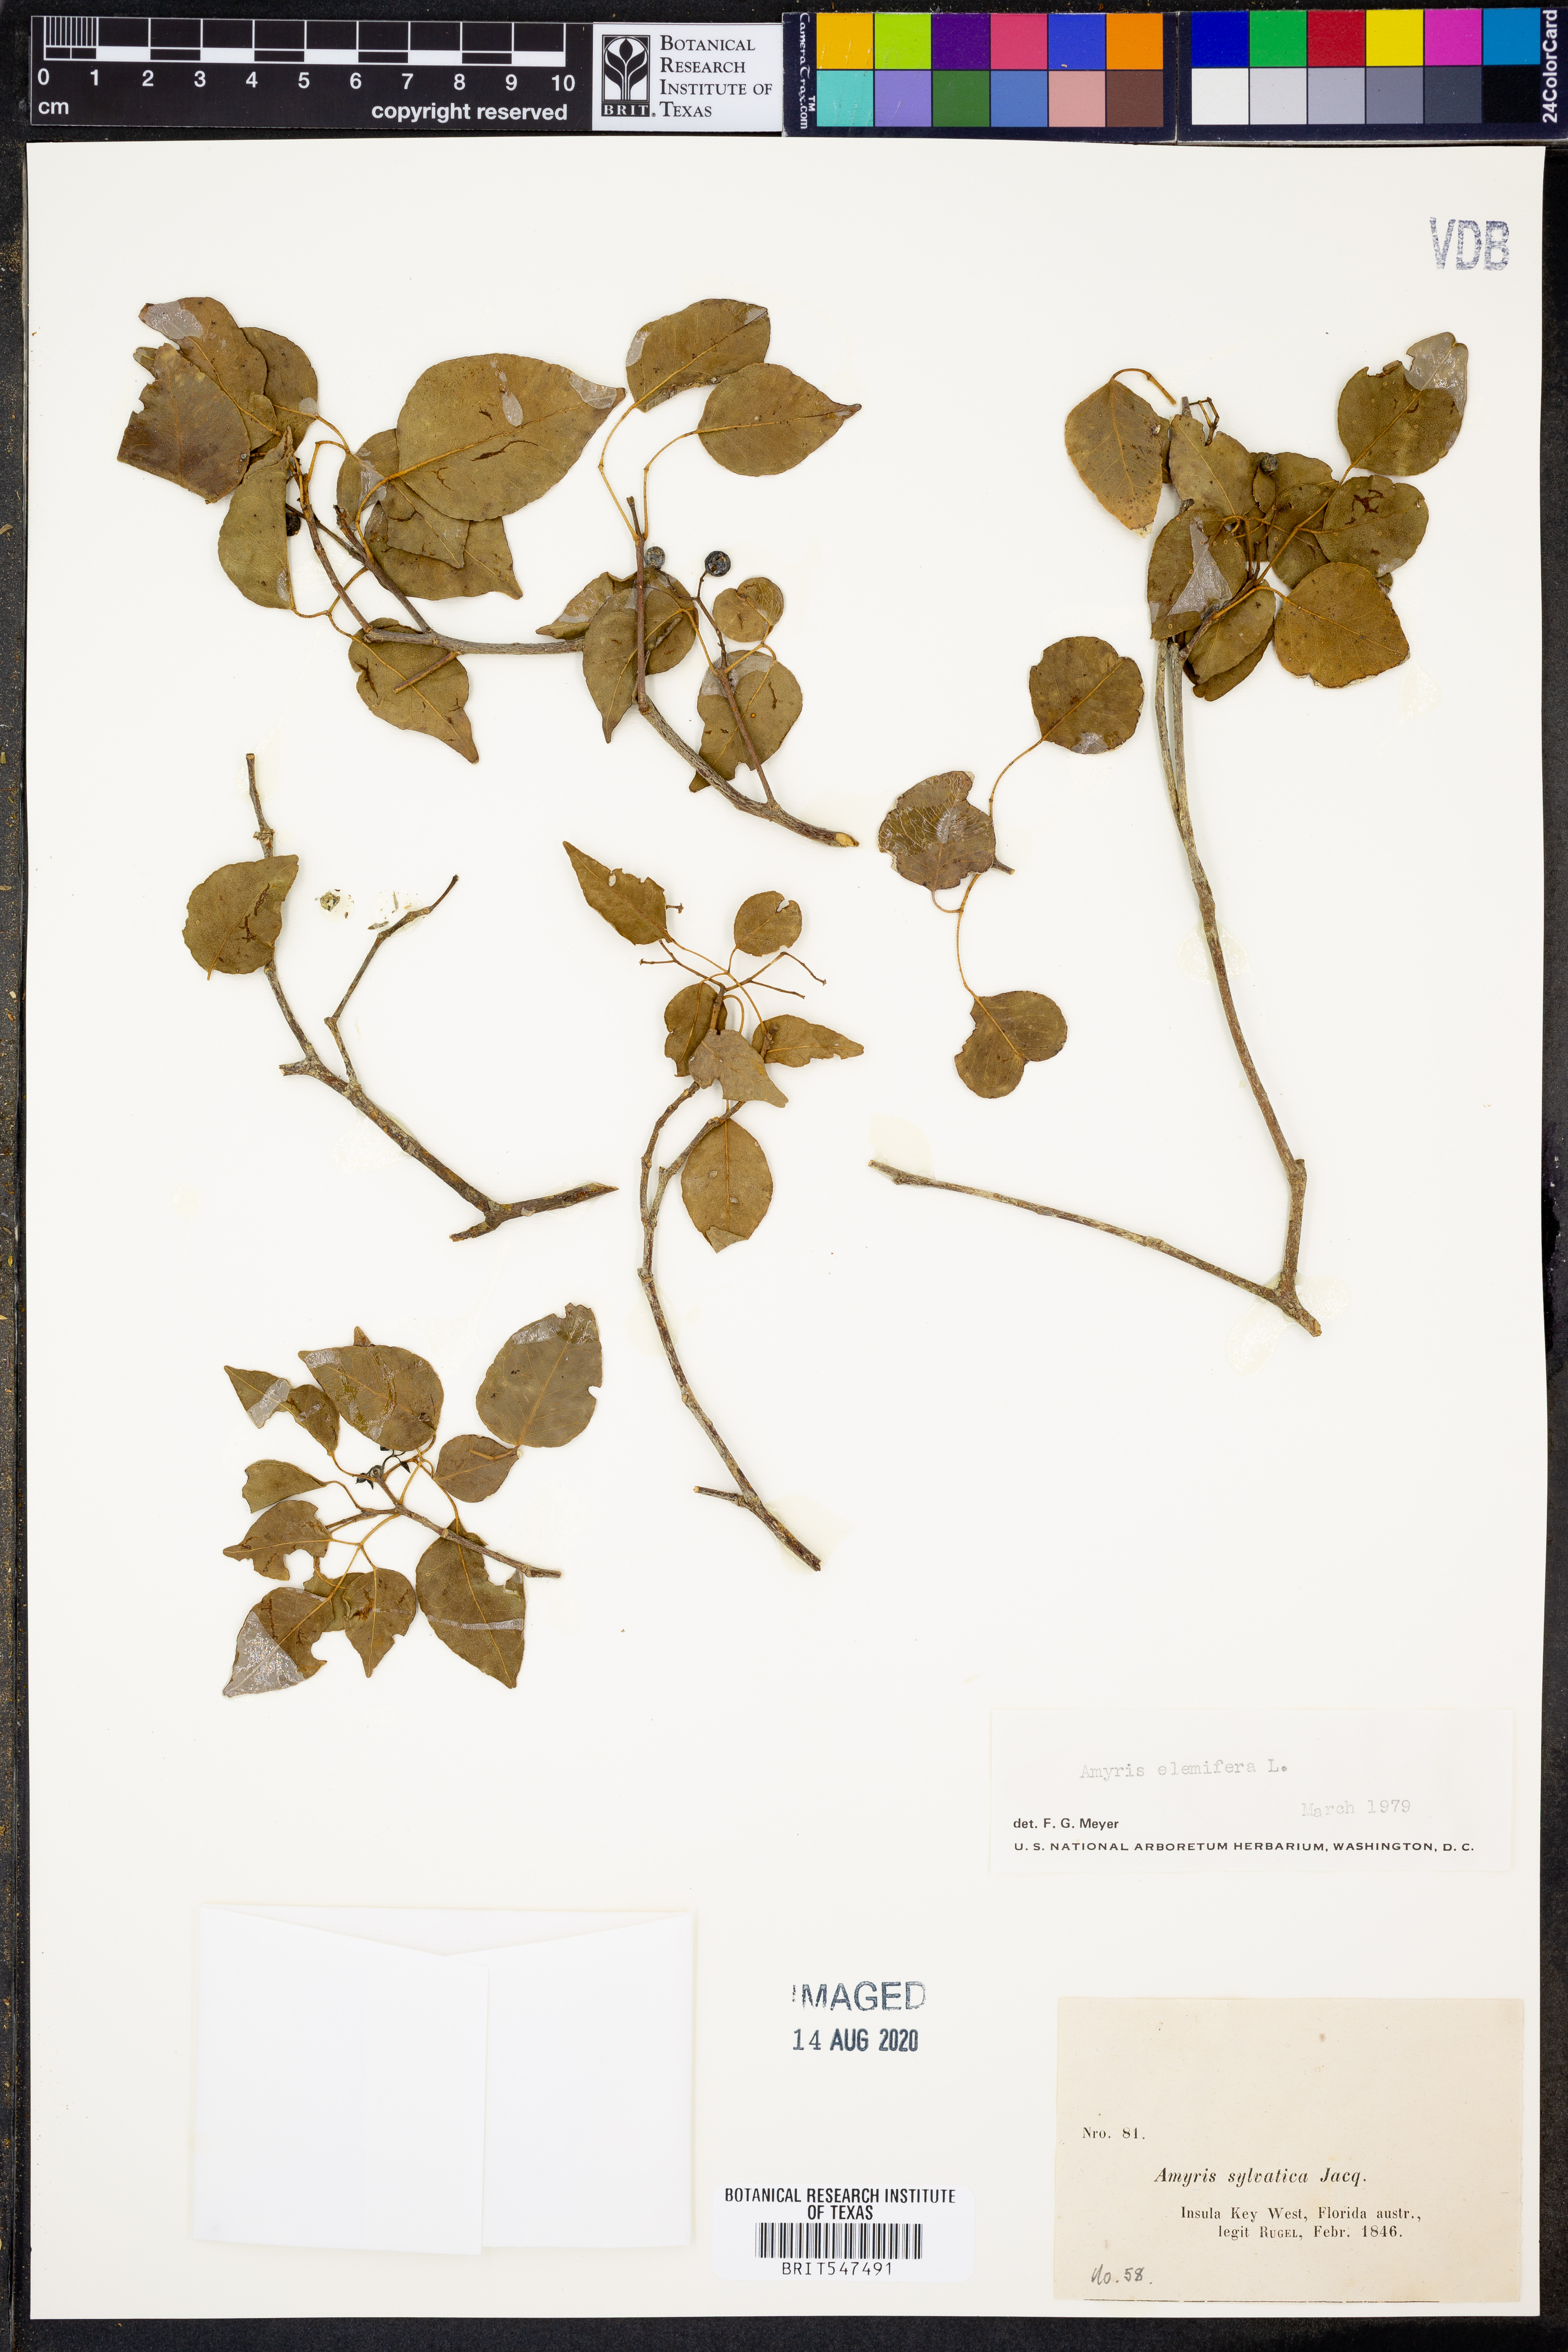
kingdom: Plantae
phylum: Tracheophyta
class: Magnoliopsida
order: Sapindales
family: Rutaceae
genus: Amyris
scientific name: Amyris elemifera
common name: Sea amyris
